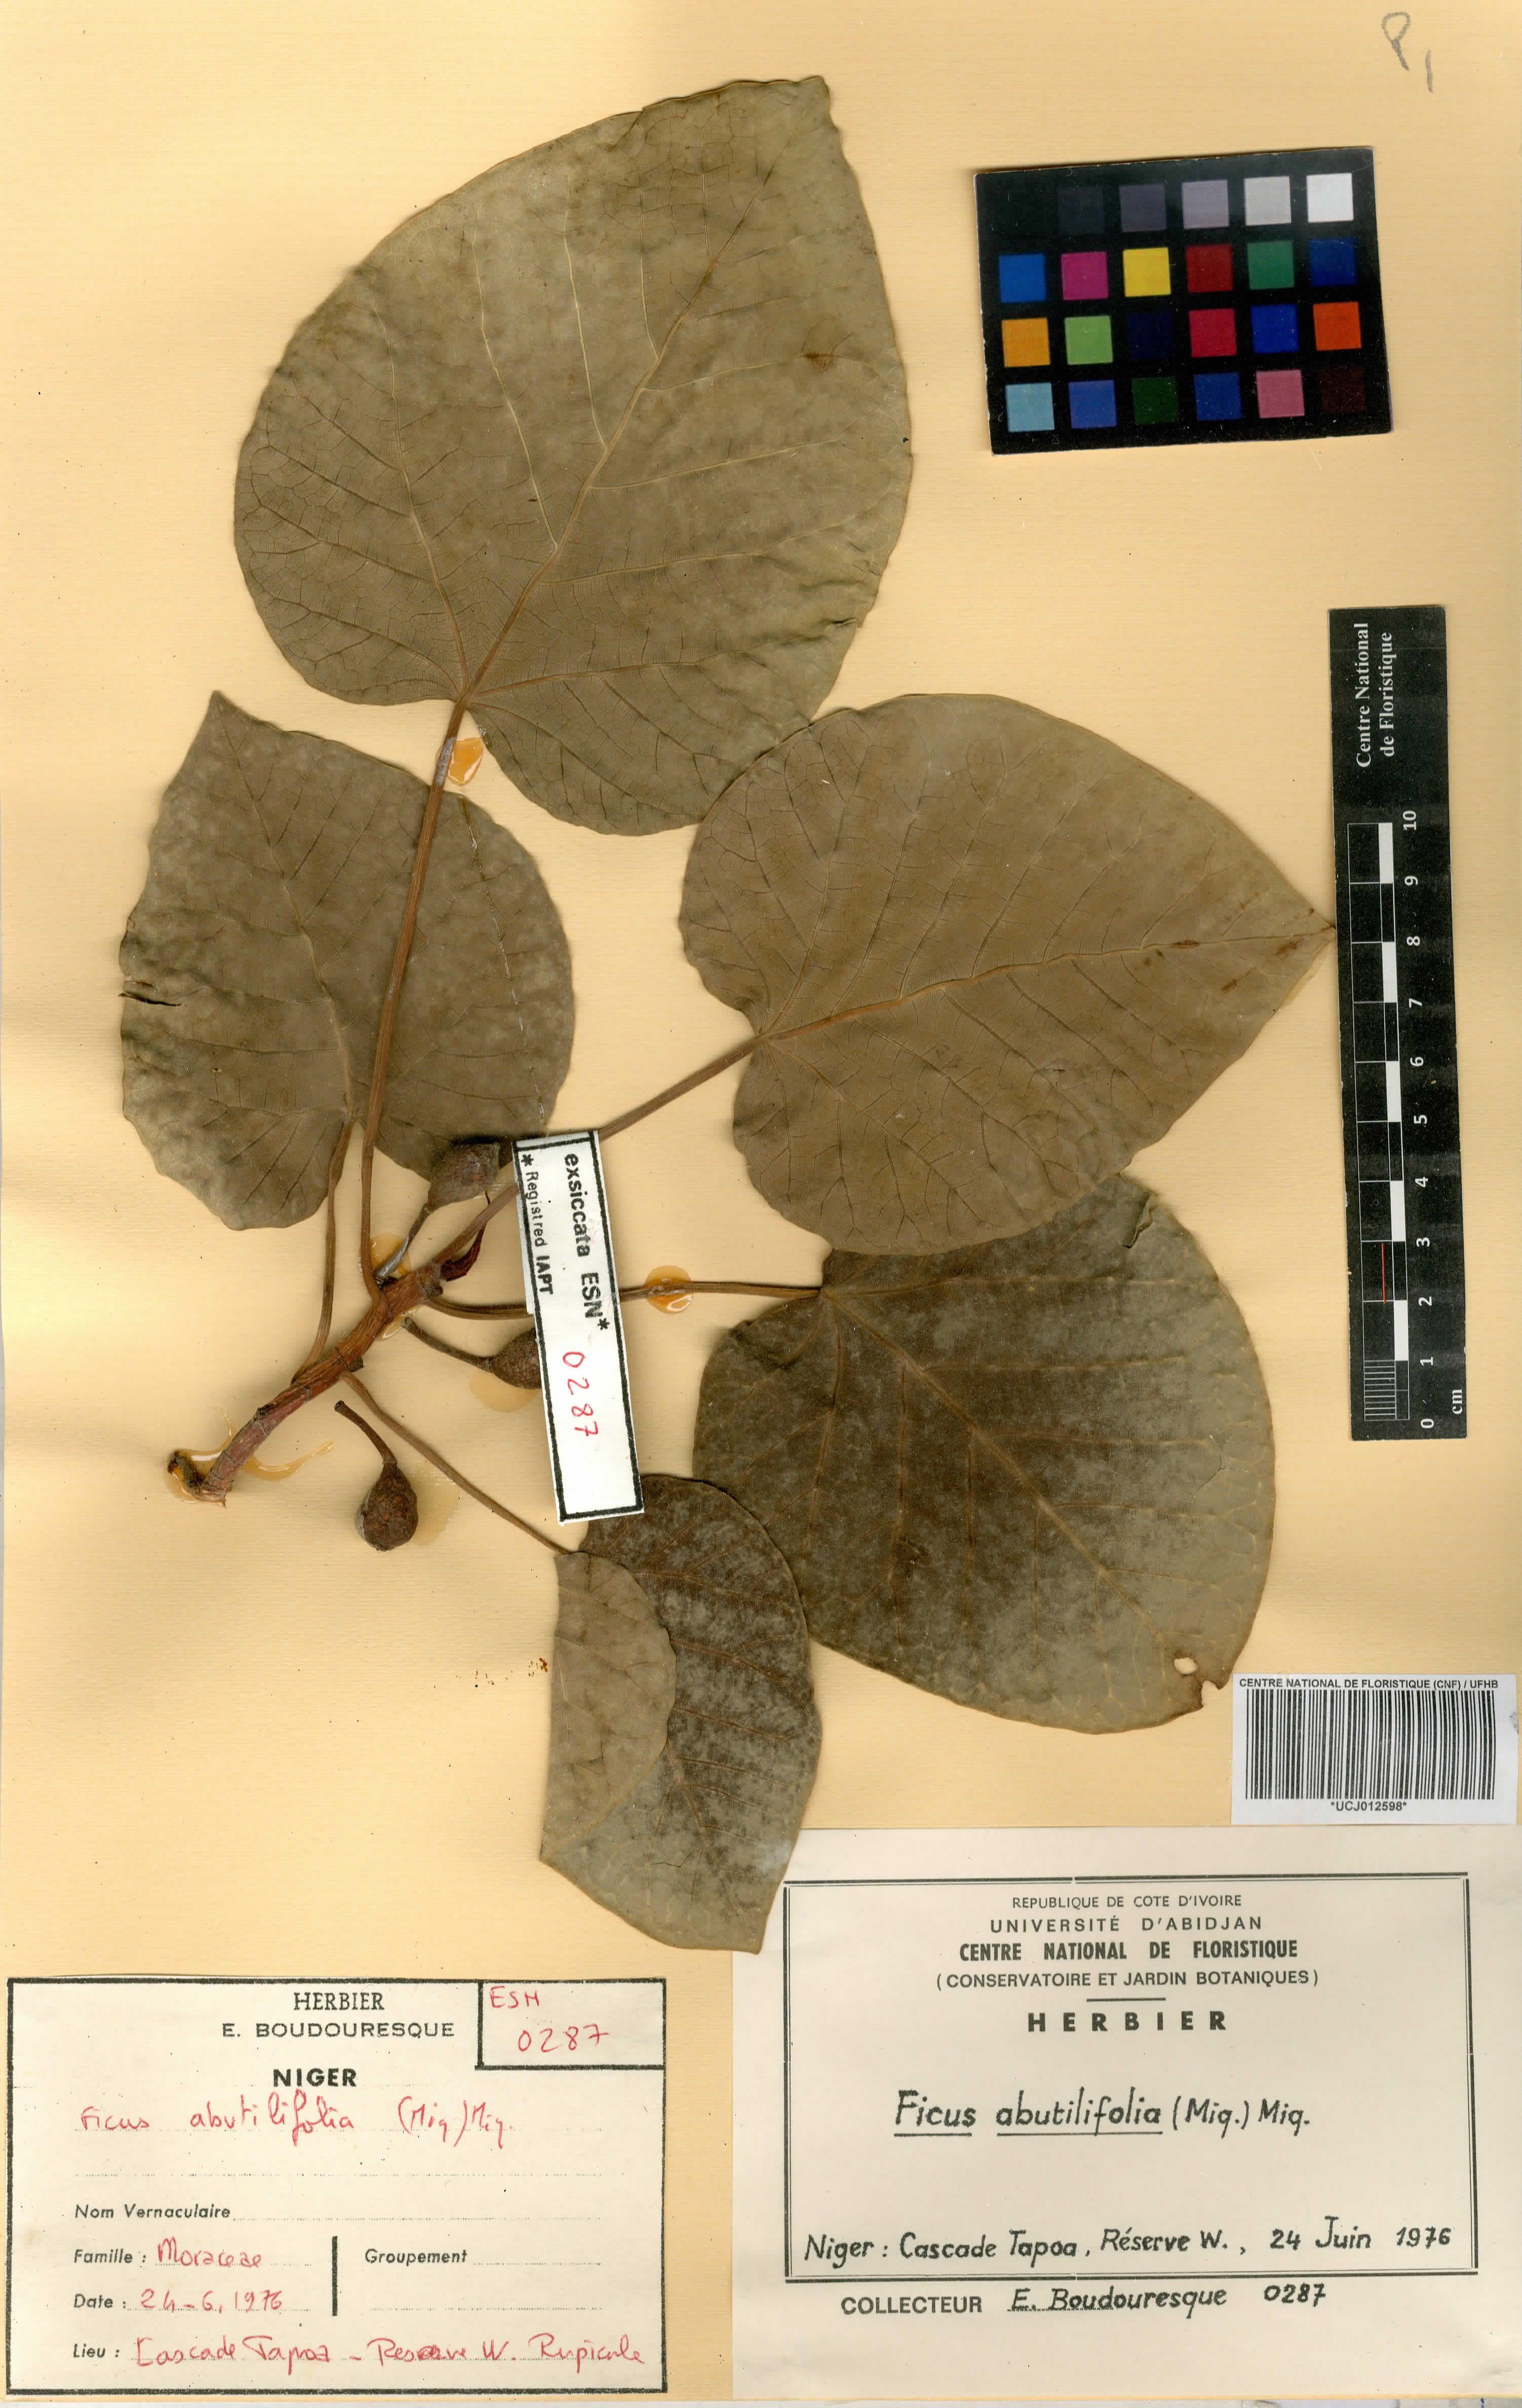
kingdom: Plantae
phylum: Tracheophyta
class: Magnoliopsida
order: Rosales
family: Moraceae
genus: Ficus
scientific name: Ficus abutilifolia
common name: Large-leaved rock fig
